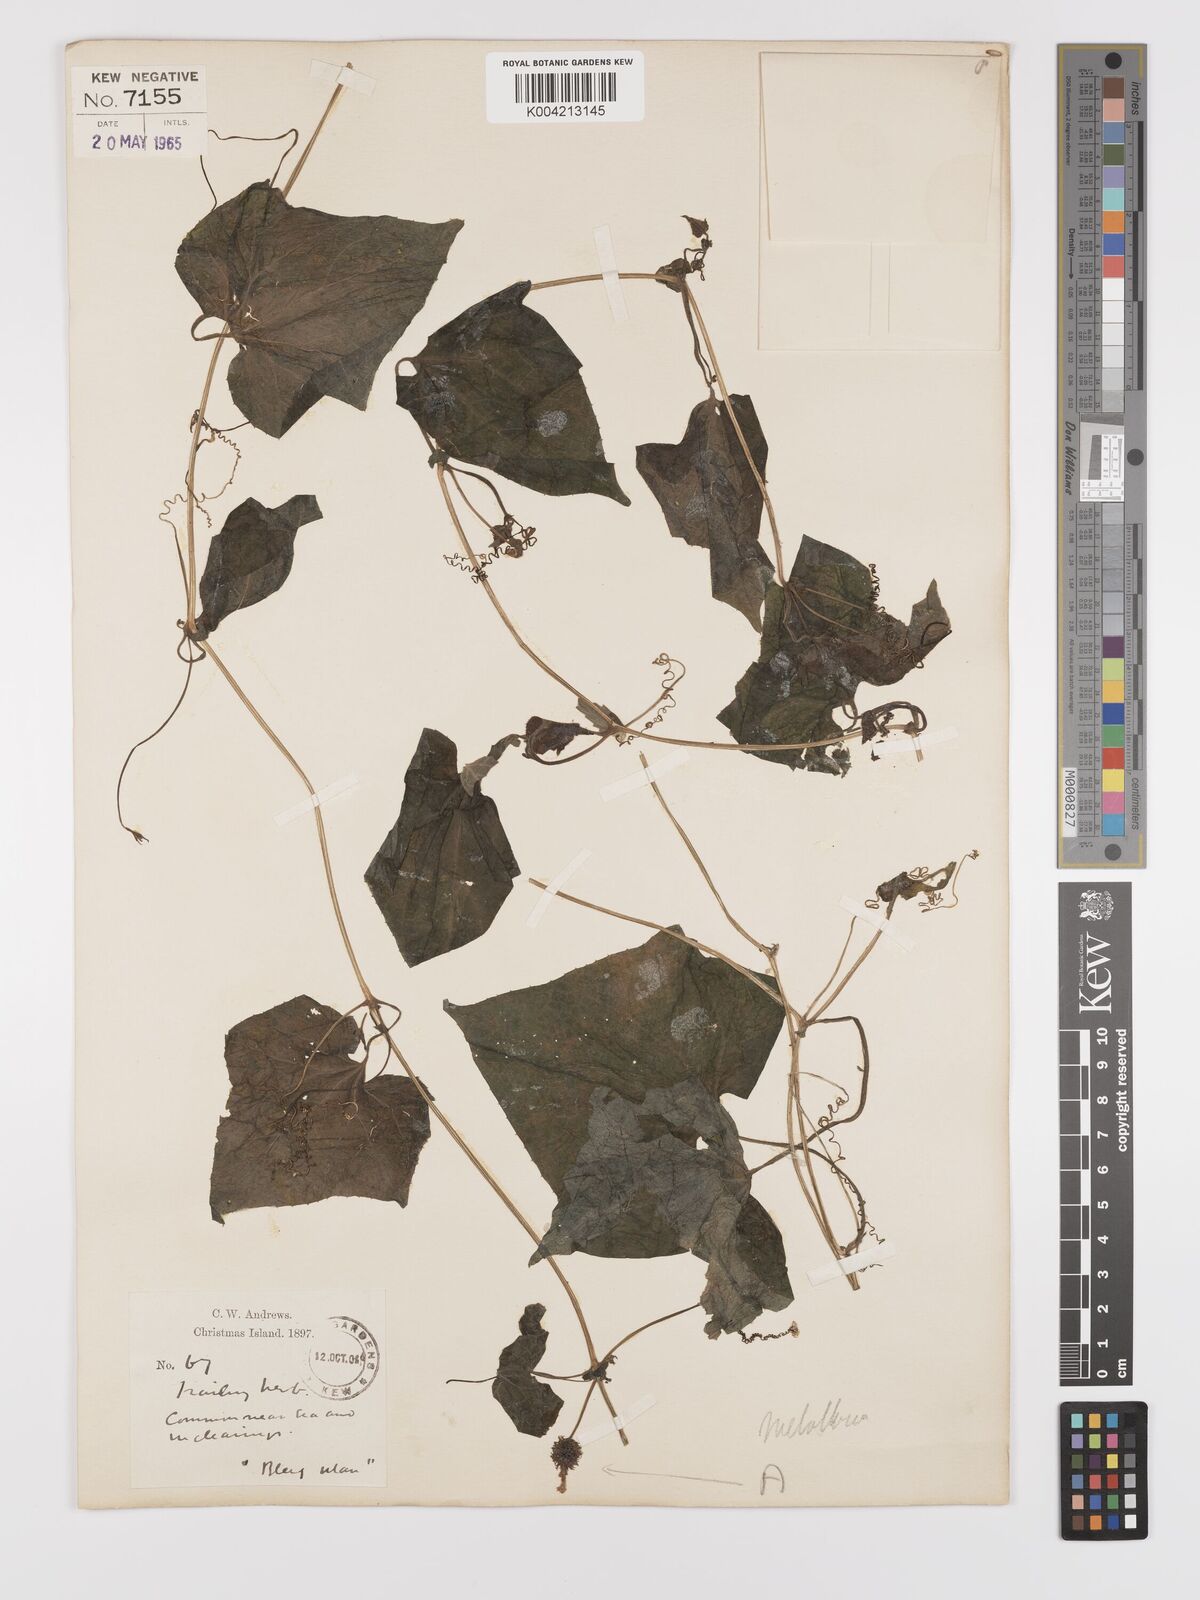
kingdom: Plantae
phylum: Tracheophyta
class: Magnoliopsida
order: Cucurbitales
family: Cucurbitaceae
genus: Muellerargia
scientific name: Muellerargia
